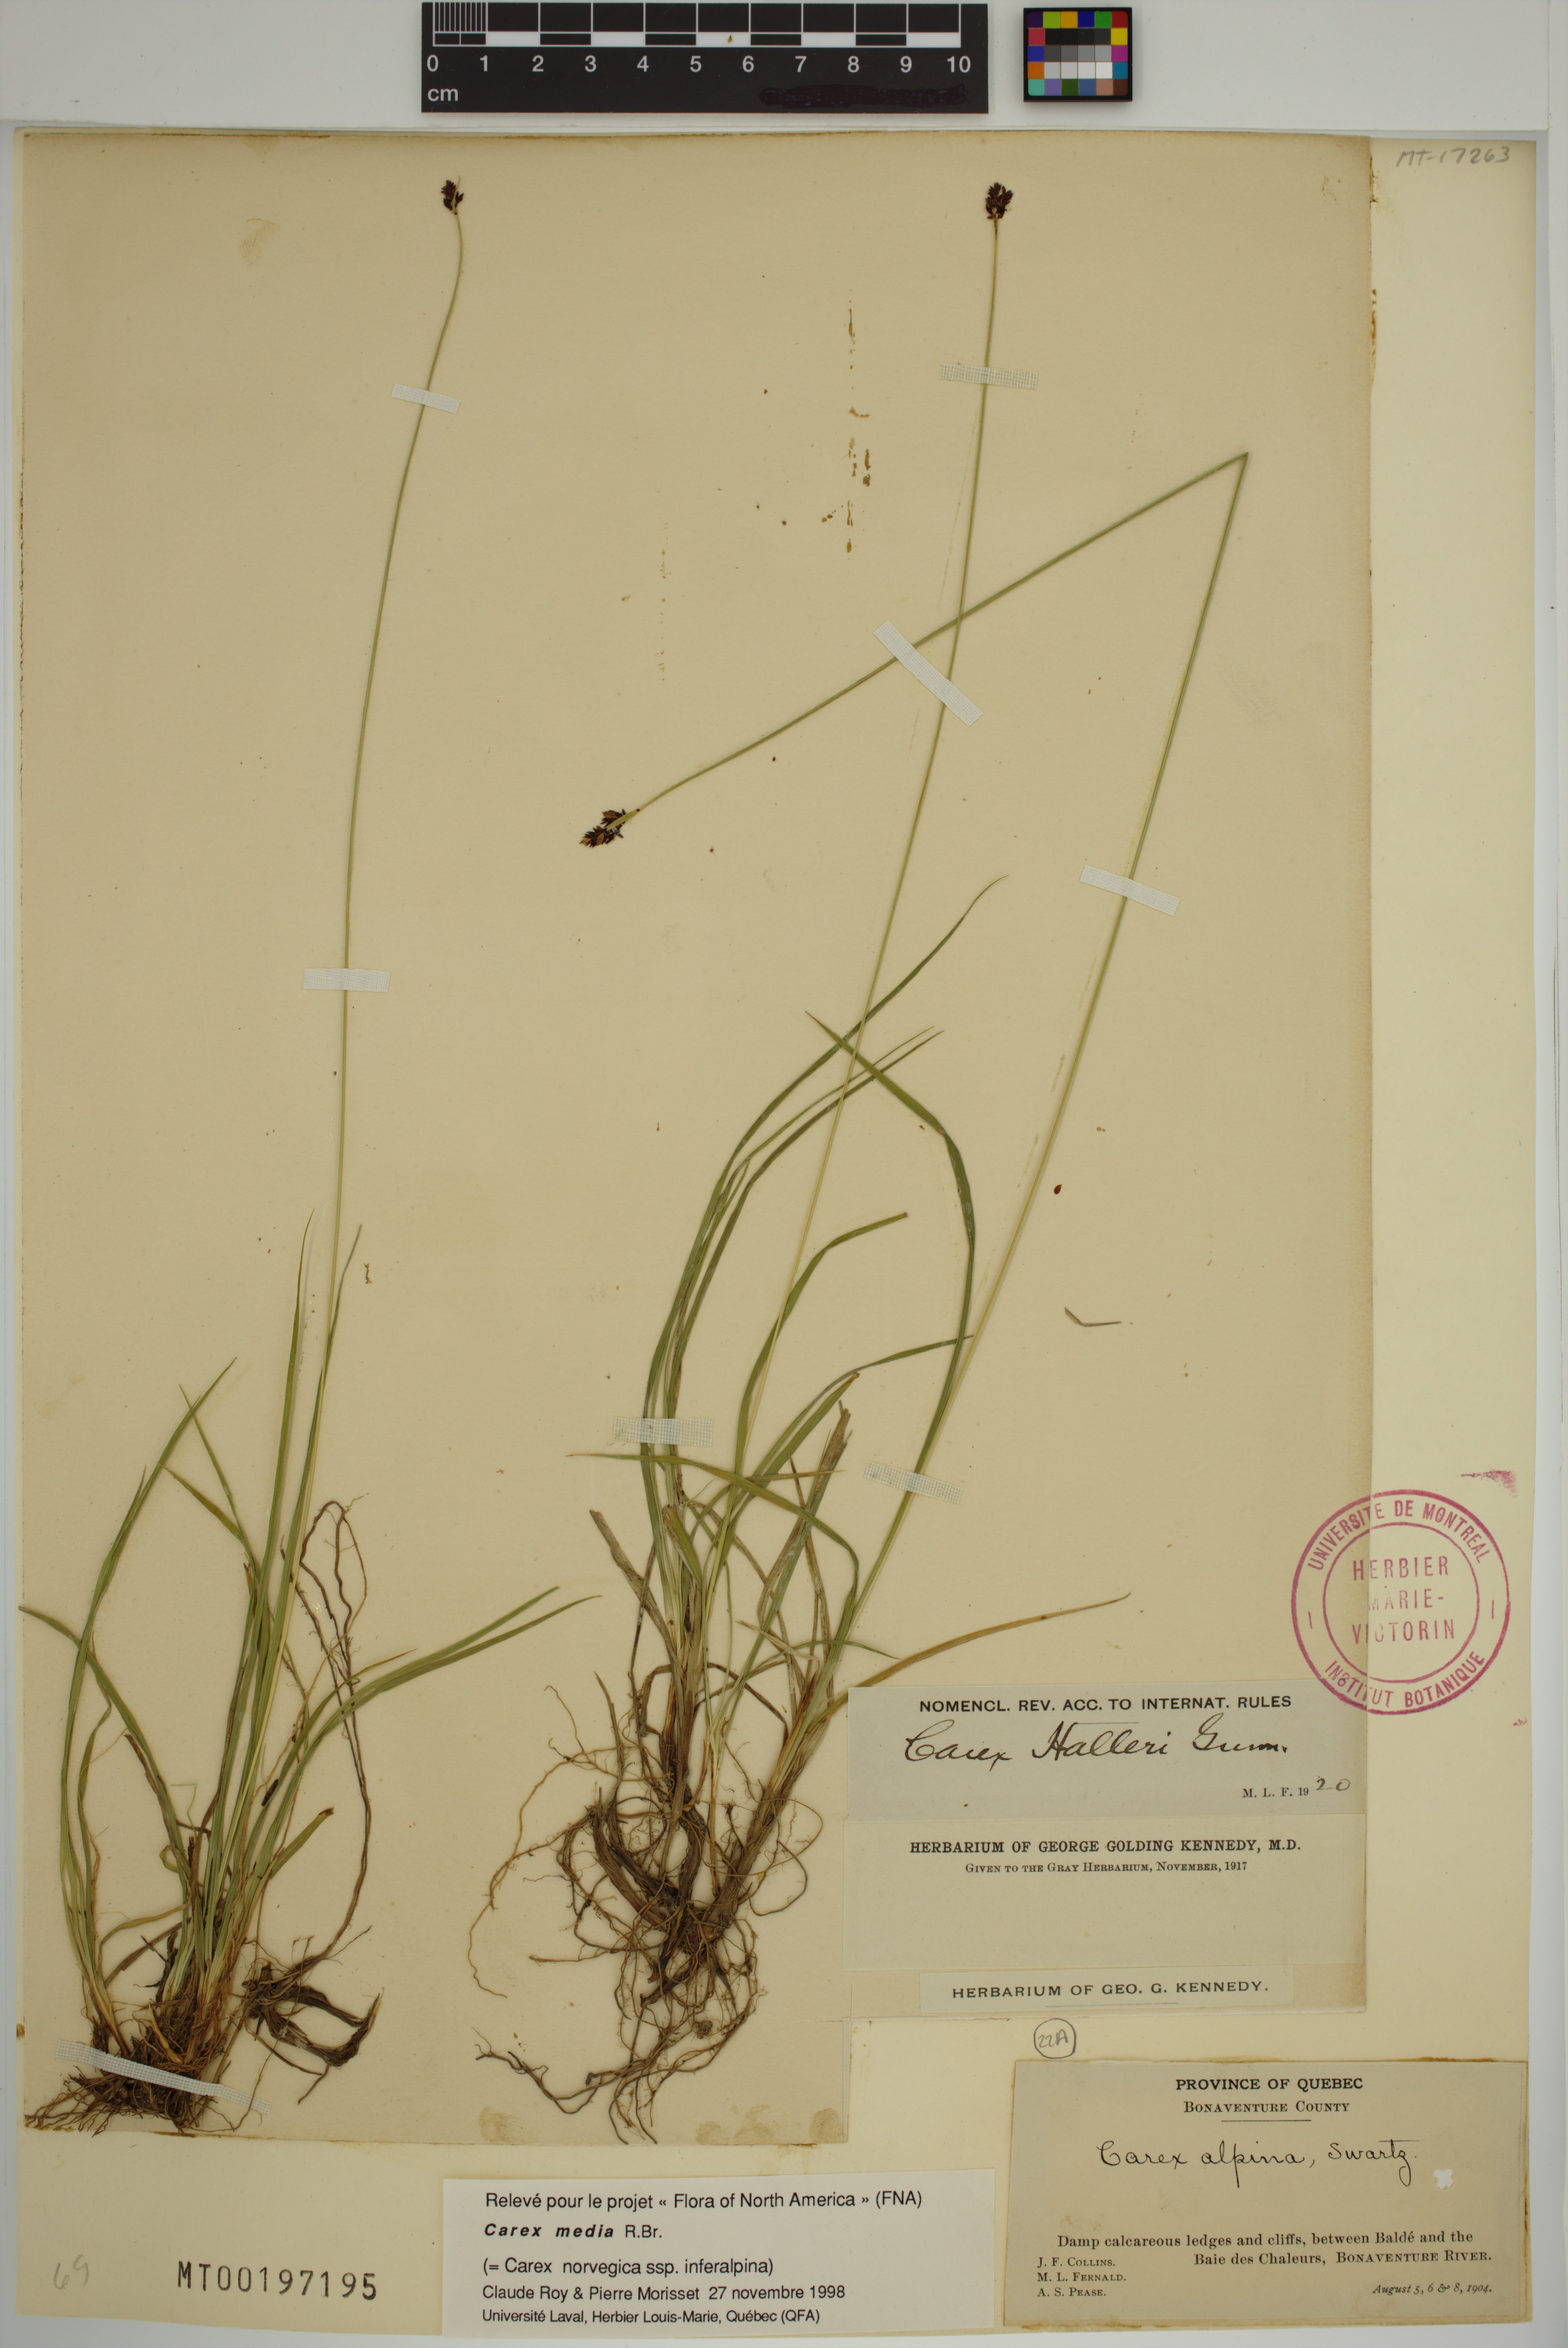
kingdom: Plantae
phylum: Tracheophyta
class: Liliopsida
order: Poales
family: Cyperaceae
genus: Carex
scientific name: Carex media
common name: Alpine sedge
